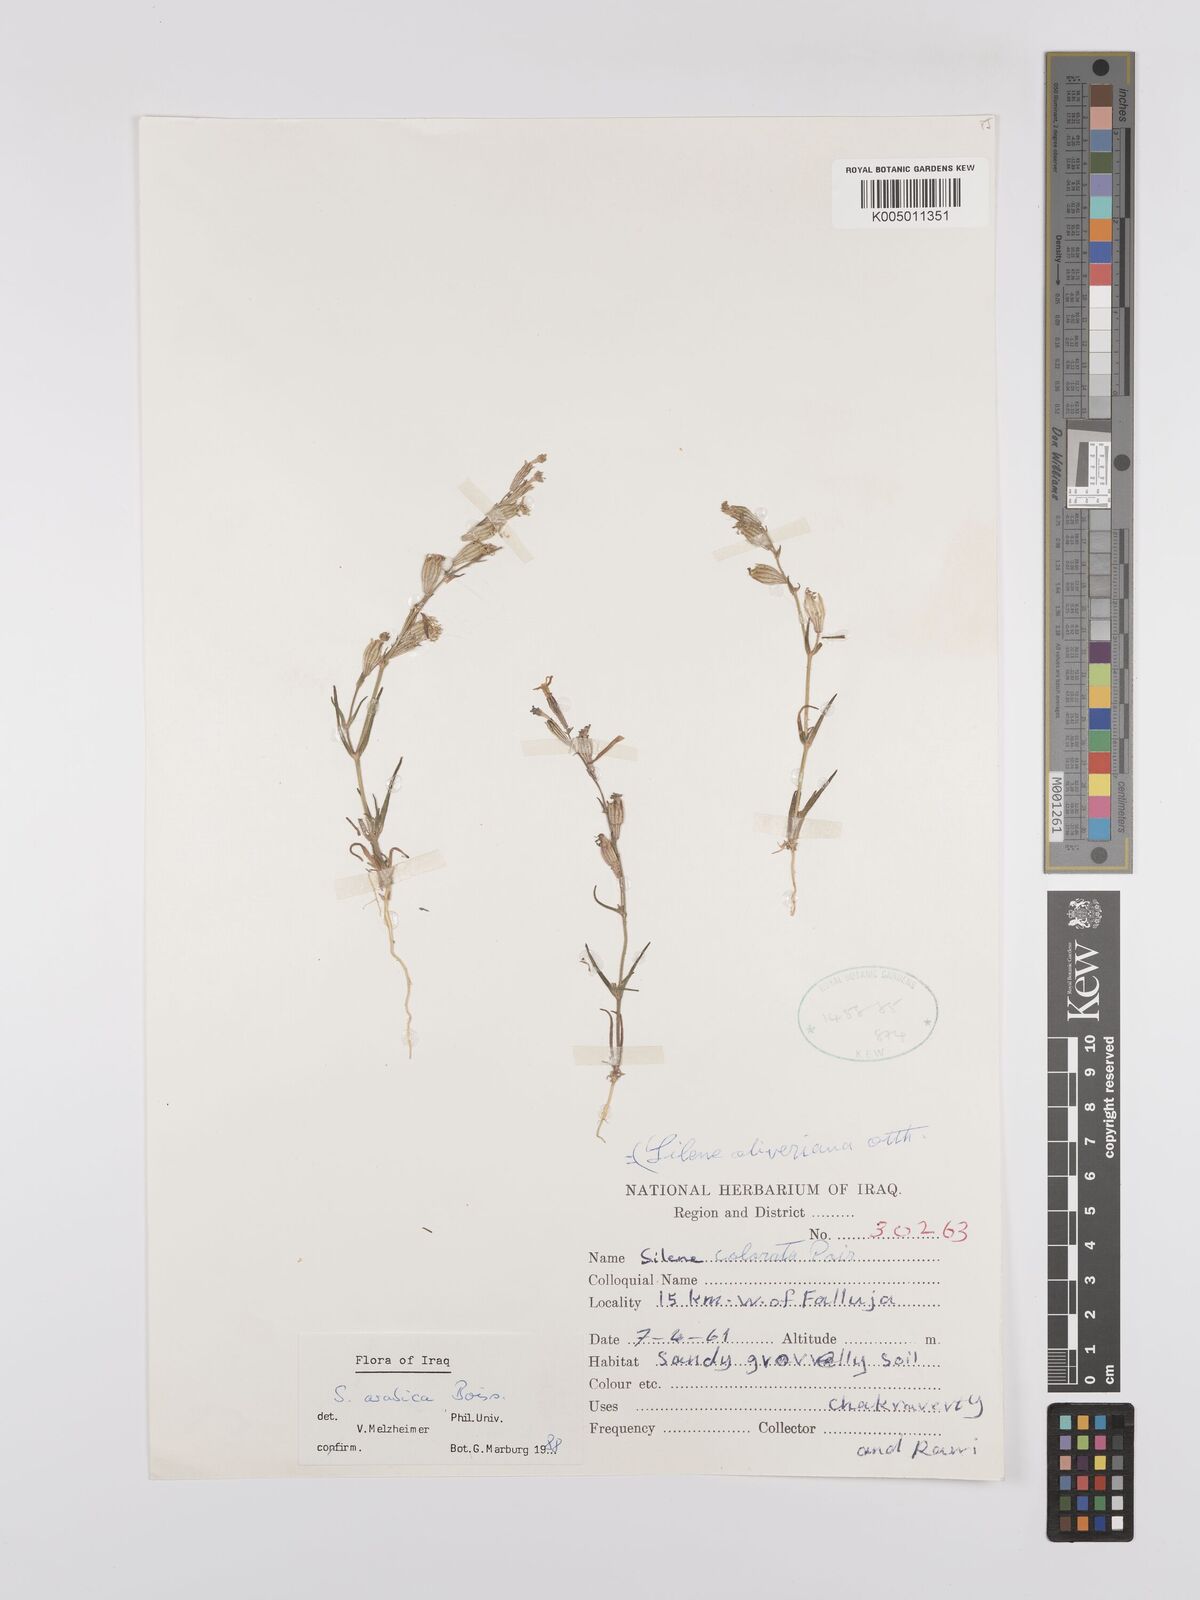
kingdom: Plantae
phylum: Tracheophyta
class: Magnoliopsida
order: Caryophyllales
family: Caryophyllaceae
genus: Silene
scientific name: Silene arabica
